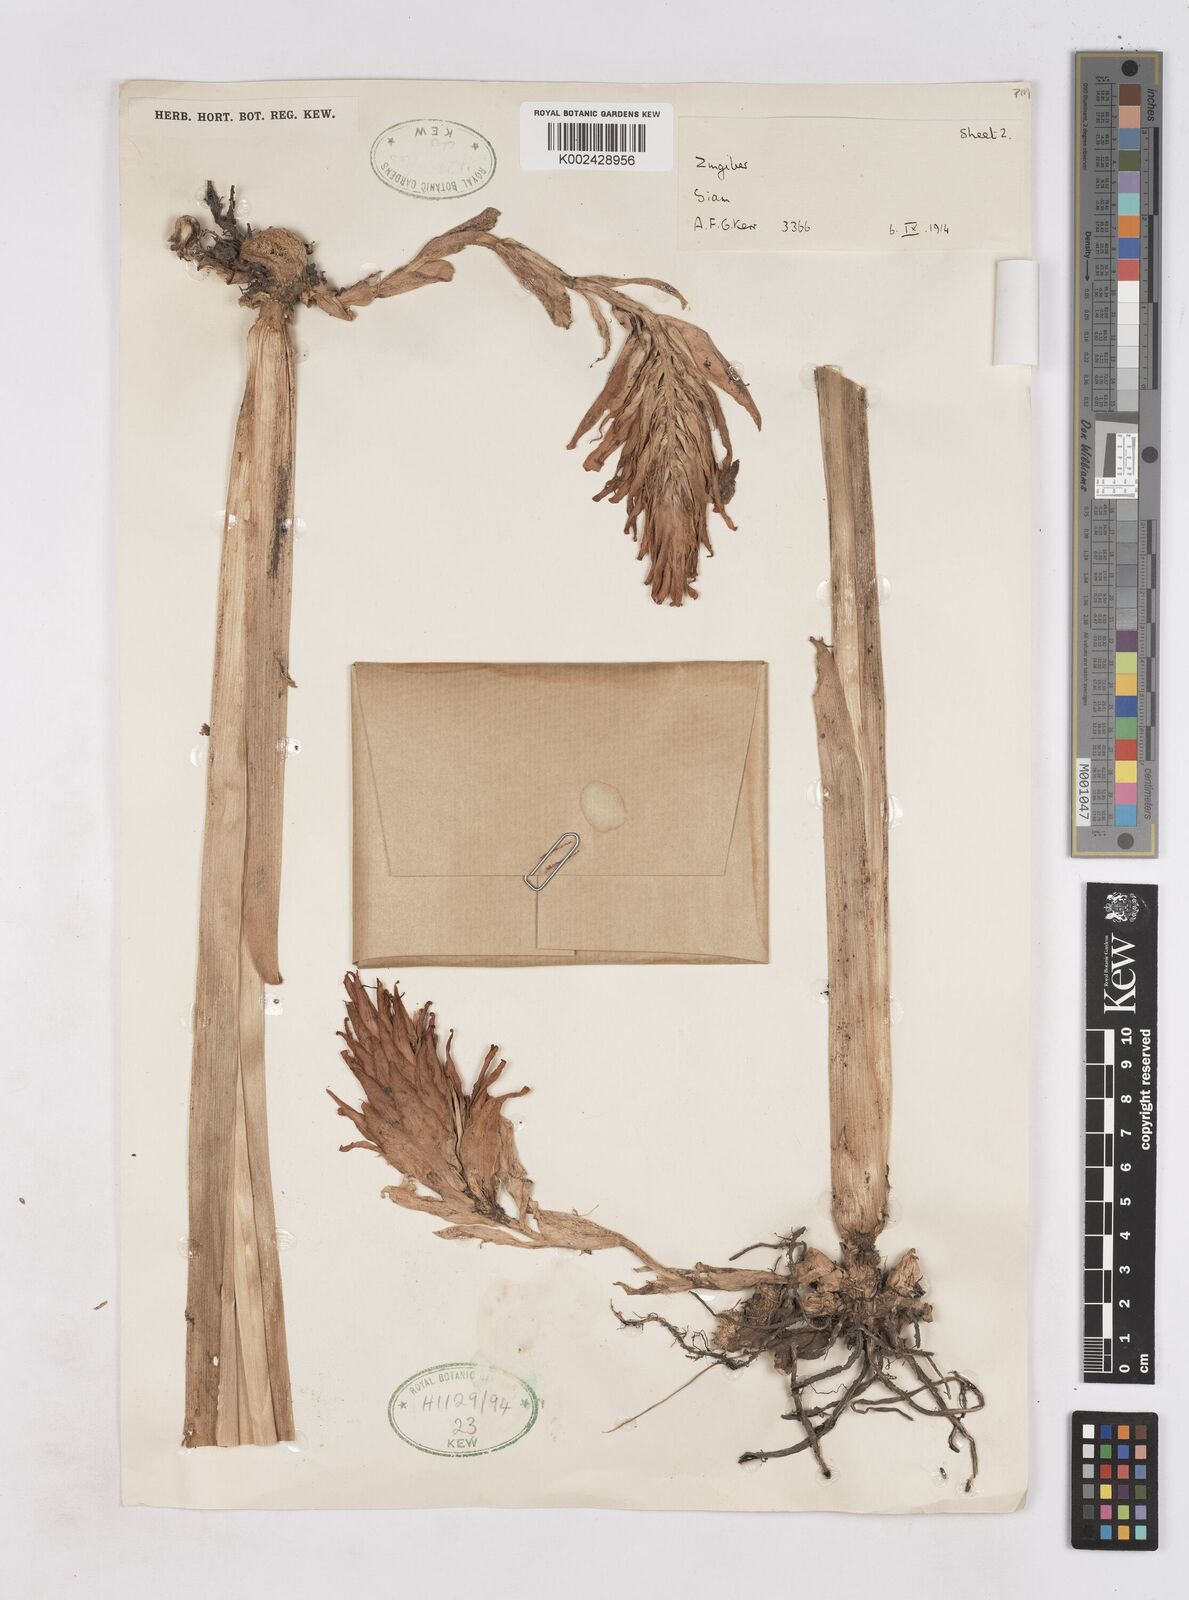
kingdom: Plantae
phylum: Tracheophyta
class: Liliopsida
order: Zingiberales
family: Zingiberaceae
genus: Zingiber
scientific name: Zingiber thorelii
